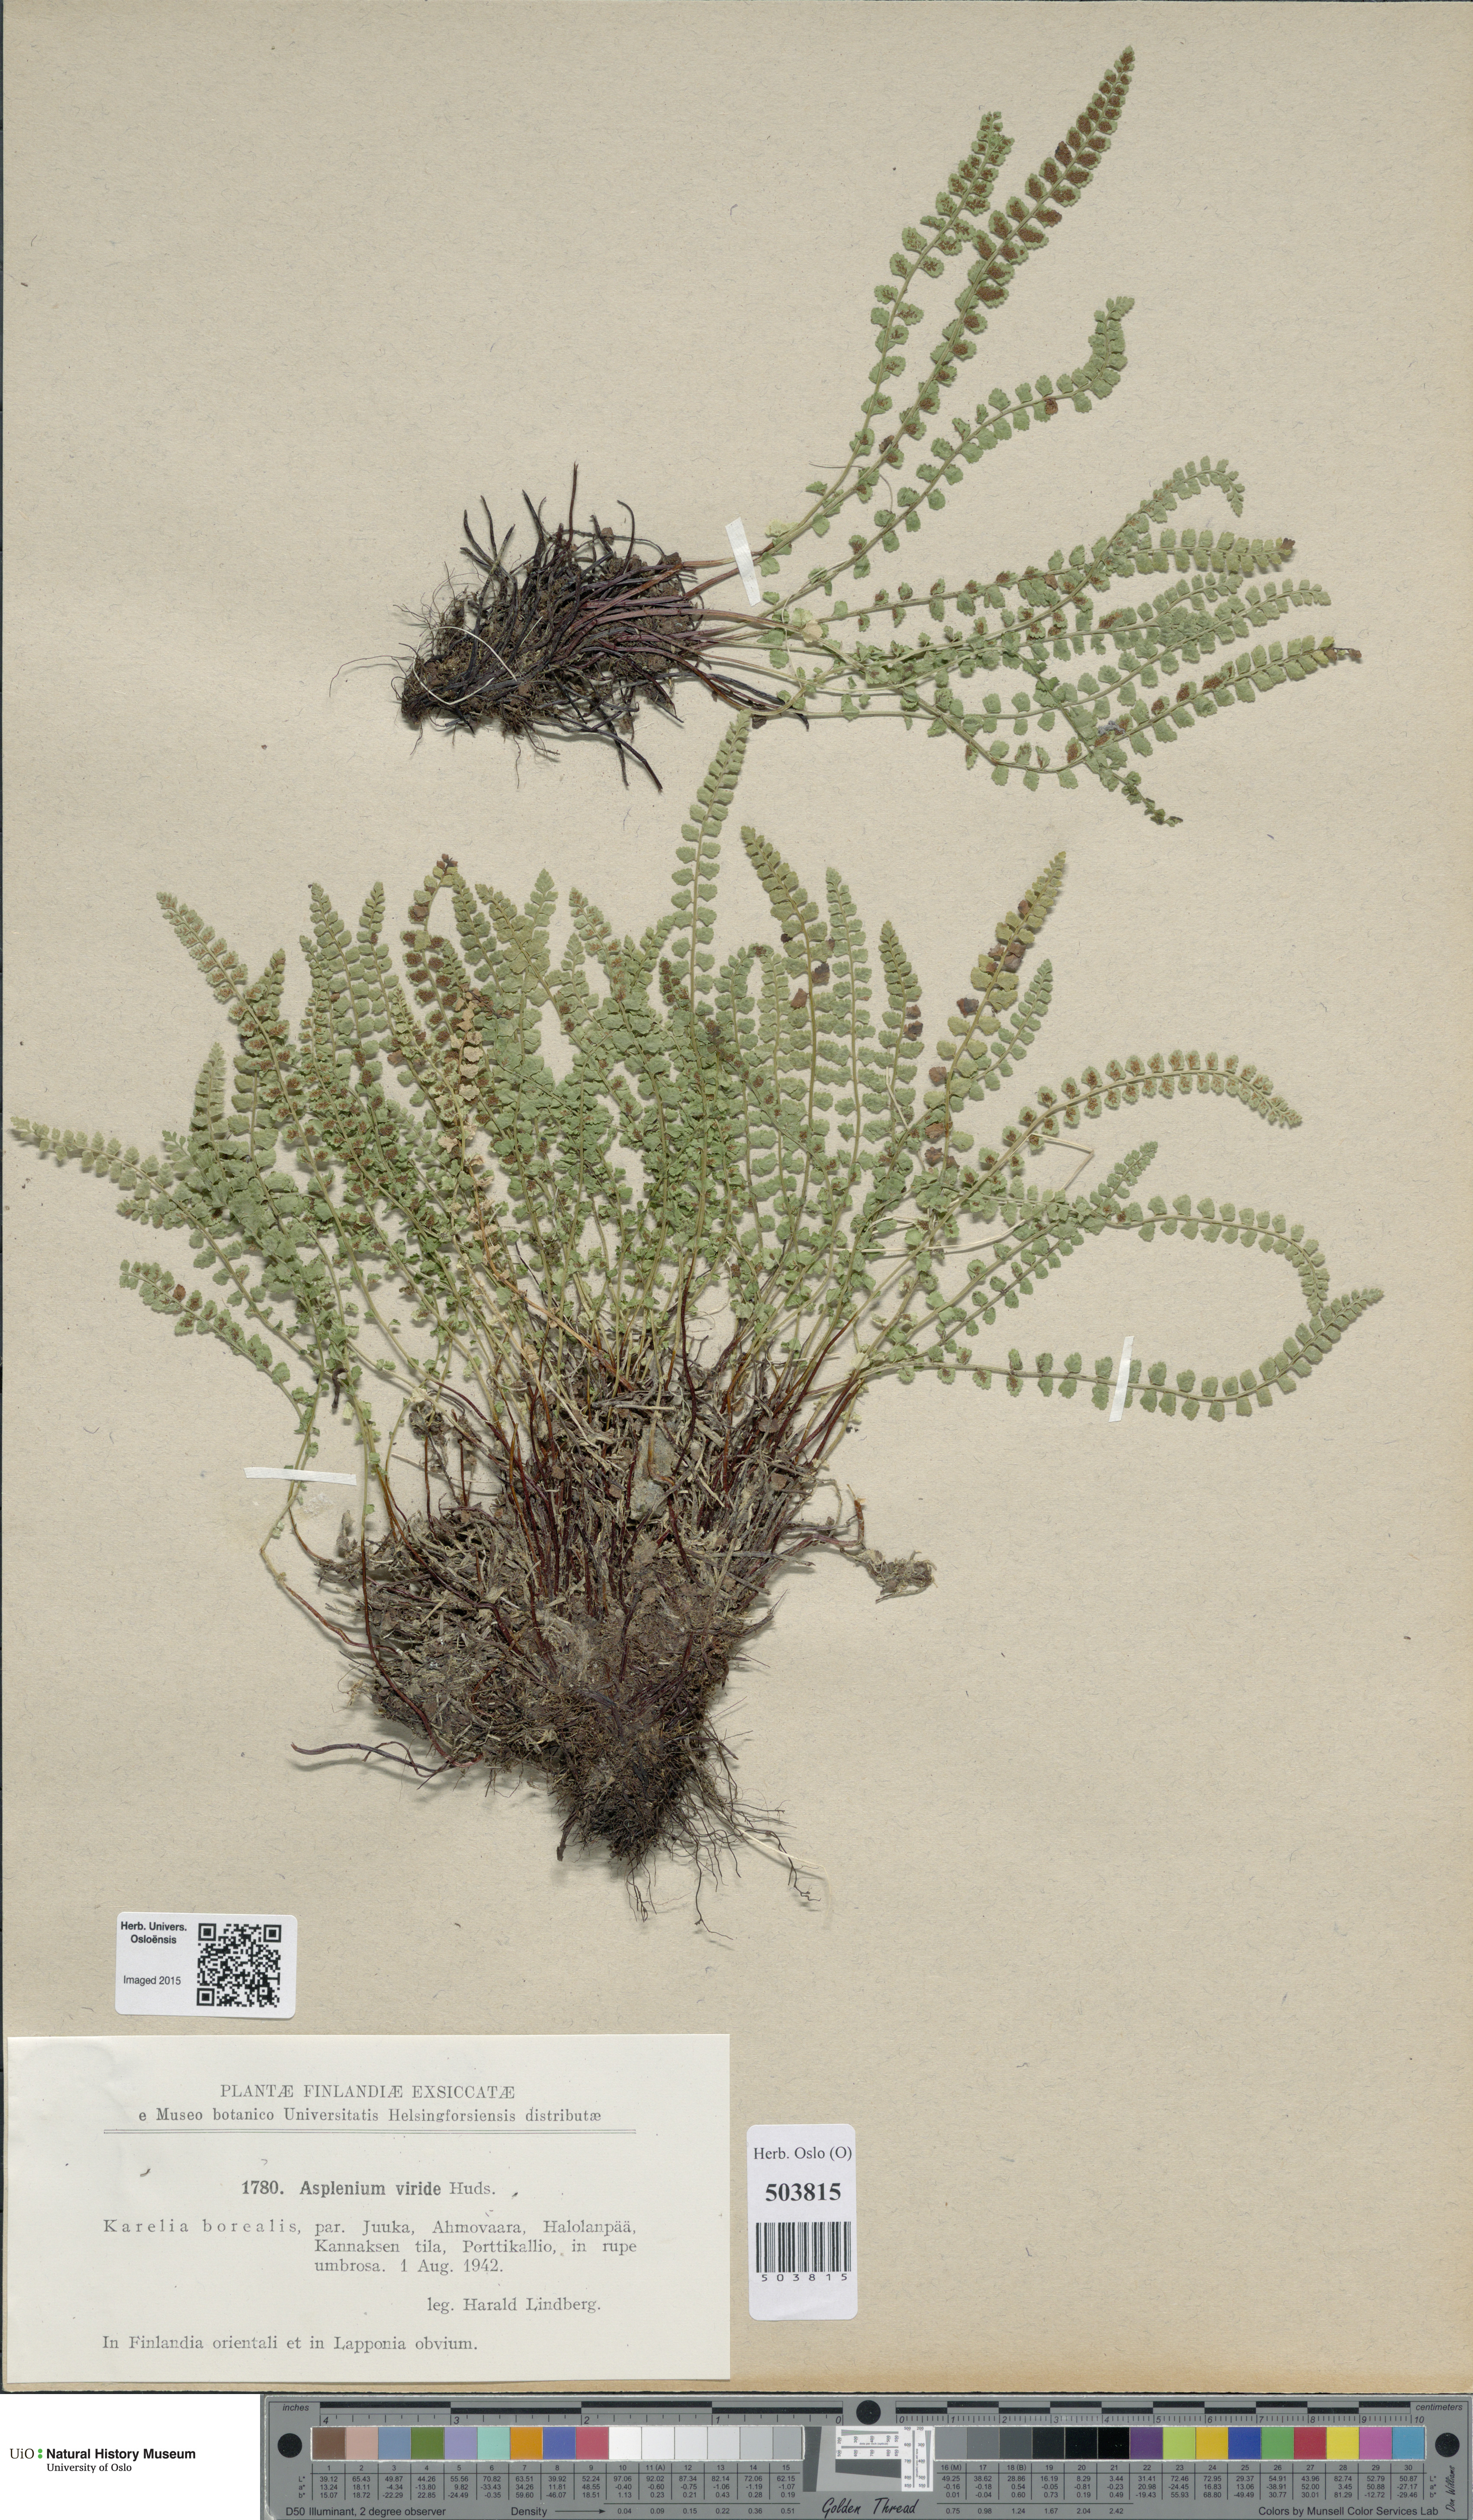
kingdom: Plantae
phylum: Tracheophyta
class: Polypodiopsida
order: Polypodiales
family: Aspleniaceae
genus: Asplenium
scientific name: Asplenium viride
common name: Green spleenwort
